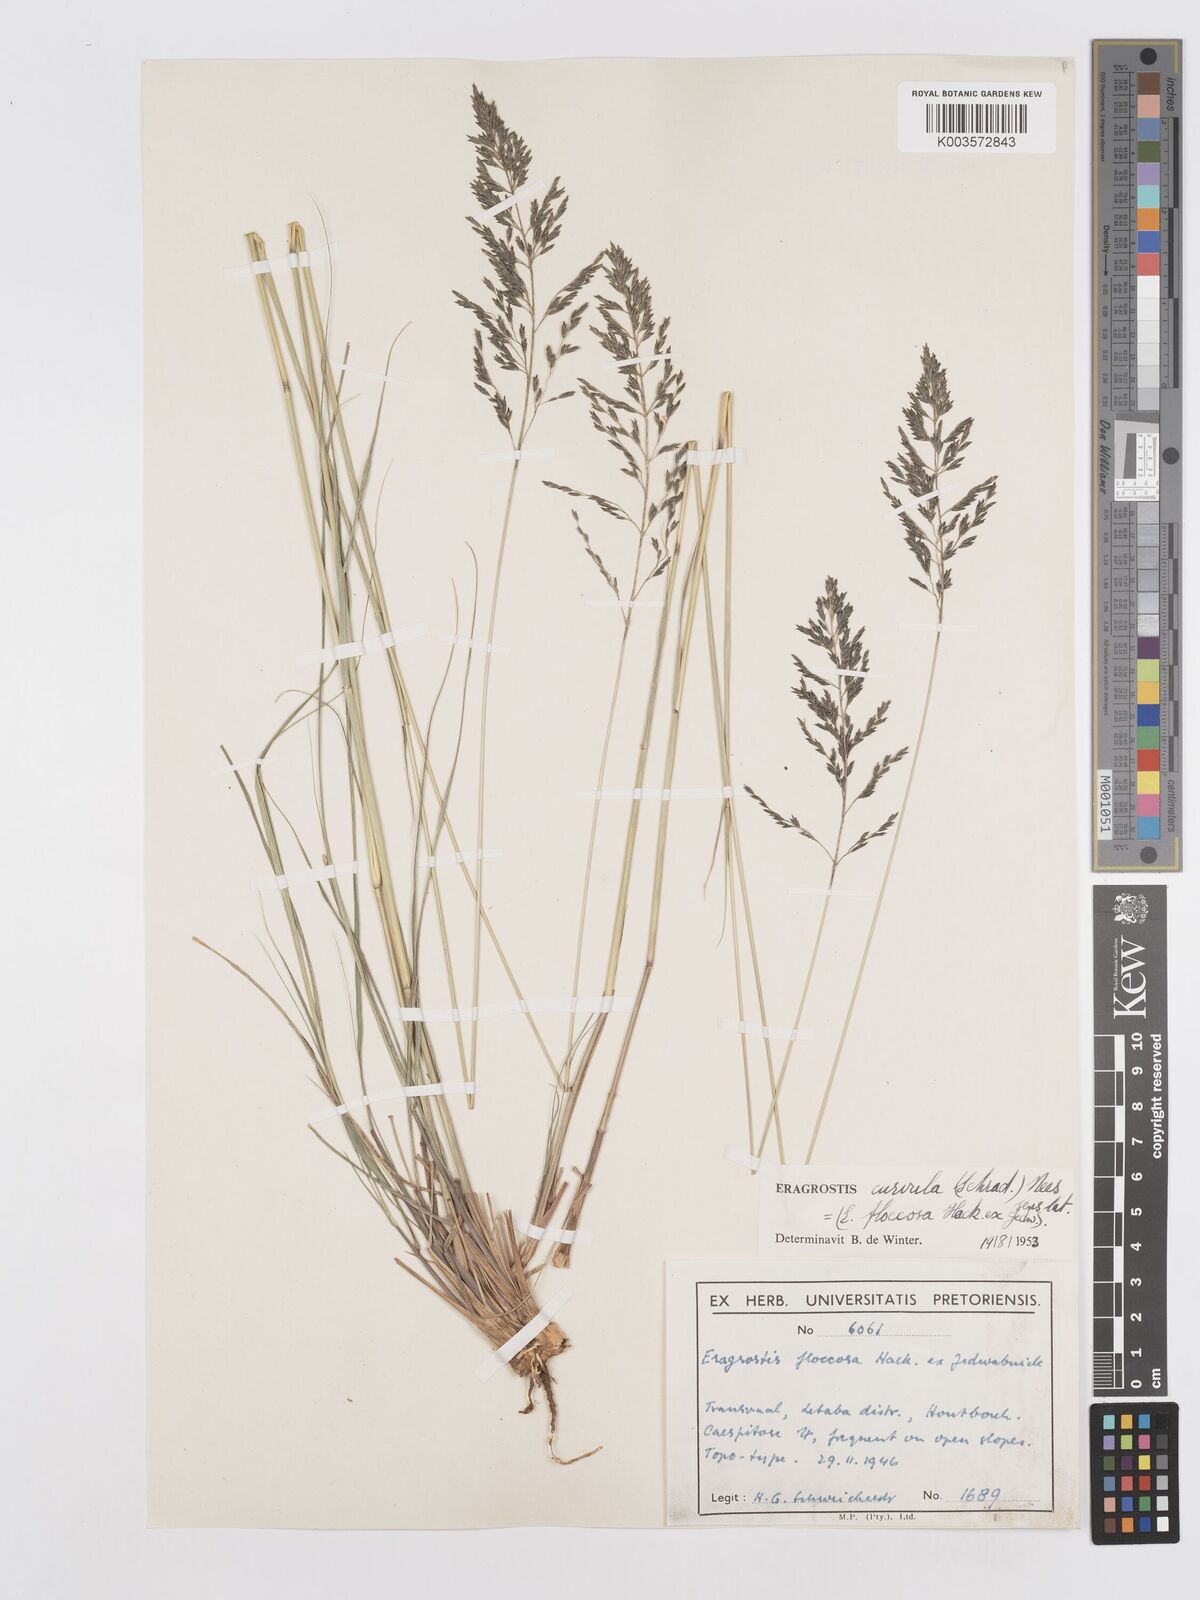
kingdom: Plantae
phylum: Tracheophyta
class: Liliopsida
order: Poales
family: Poaceae
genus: Eragrostis
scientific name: Eragrostis curvula
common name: African love-grass
